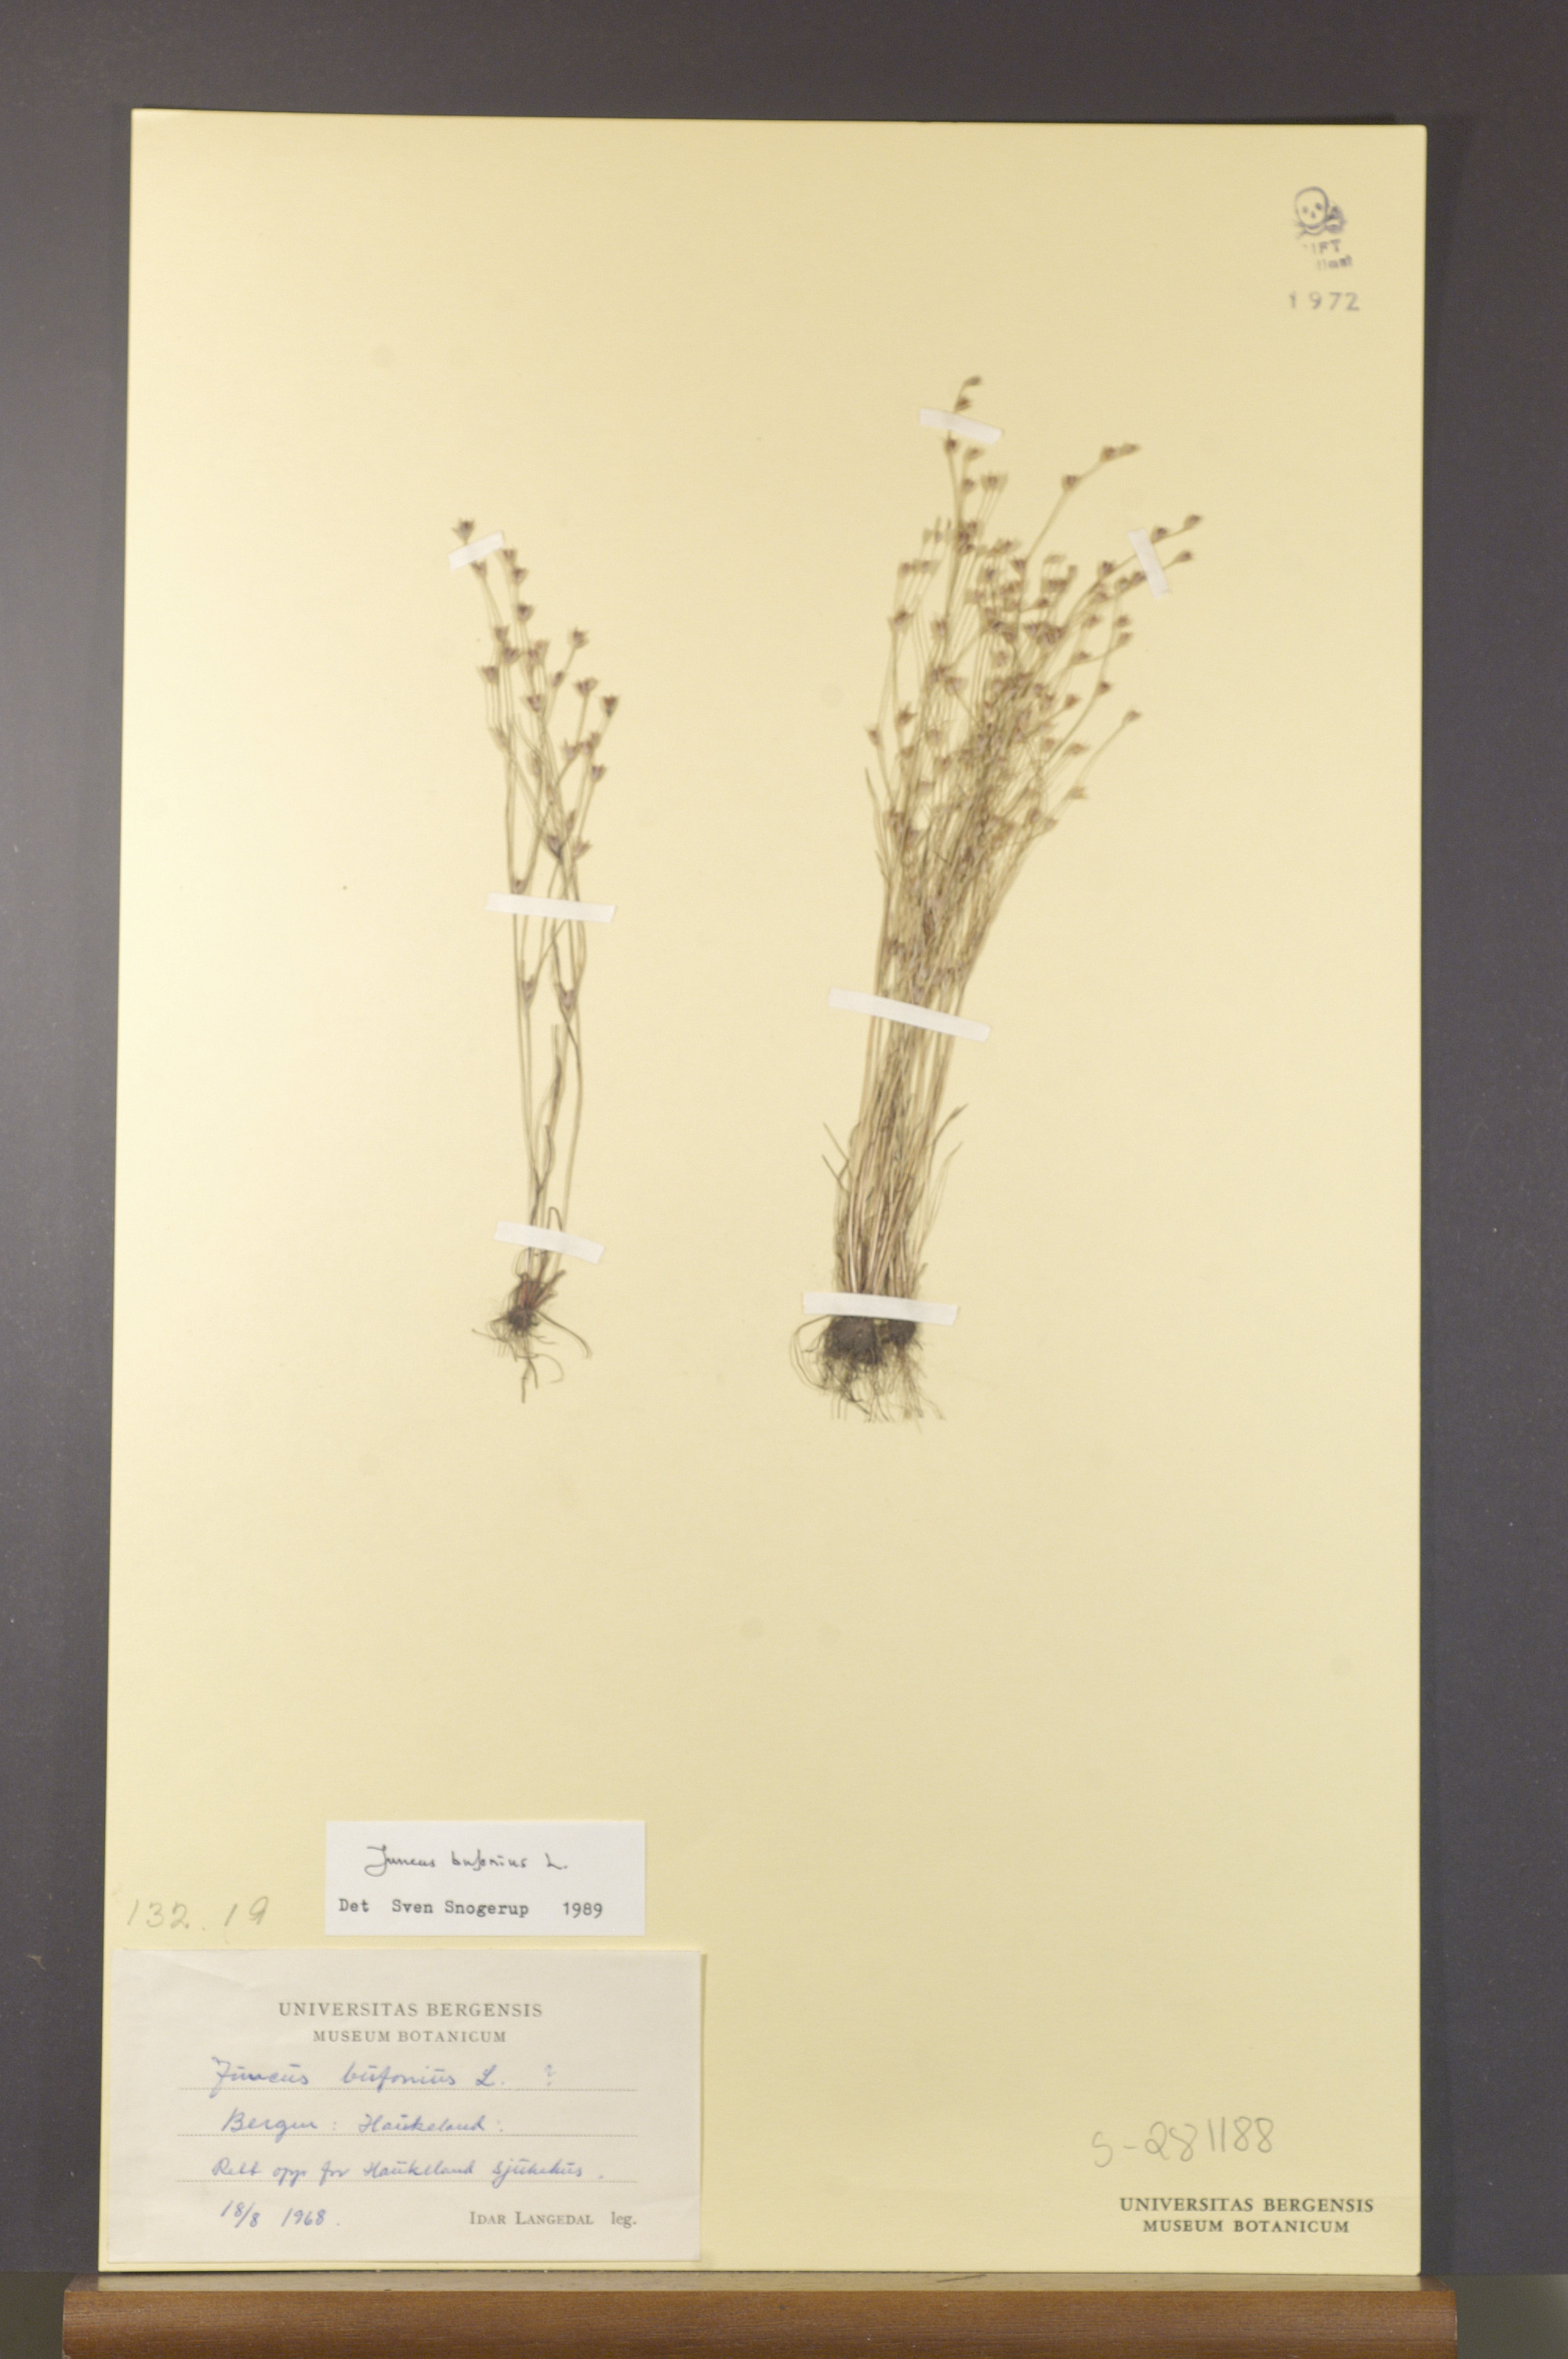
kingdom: Plantae
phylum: Tracheophyta
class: Liliopsida
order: Poales
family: Juncaceae
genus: Juncus
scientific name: Juncus bufonius
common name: Toad rush
